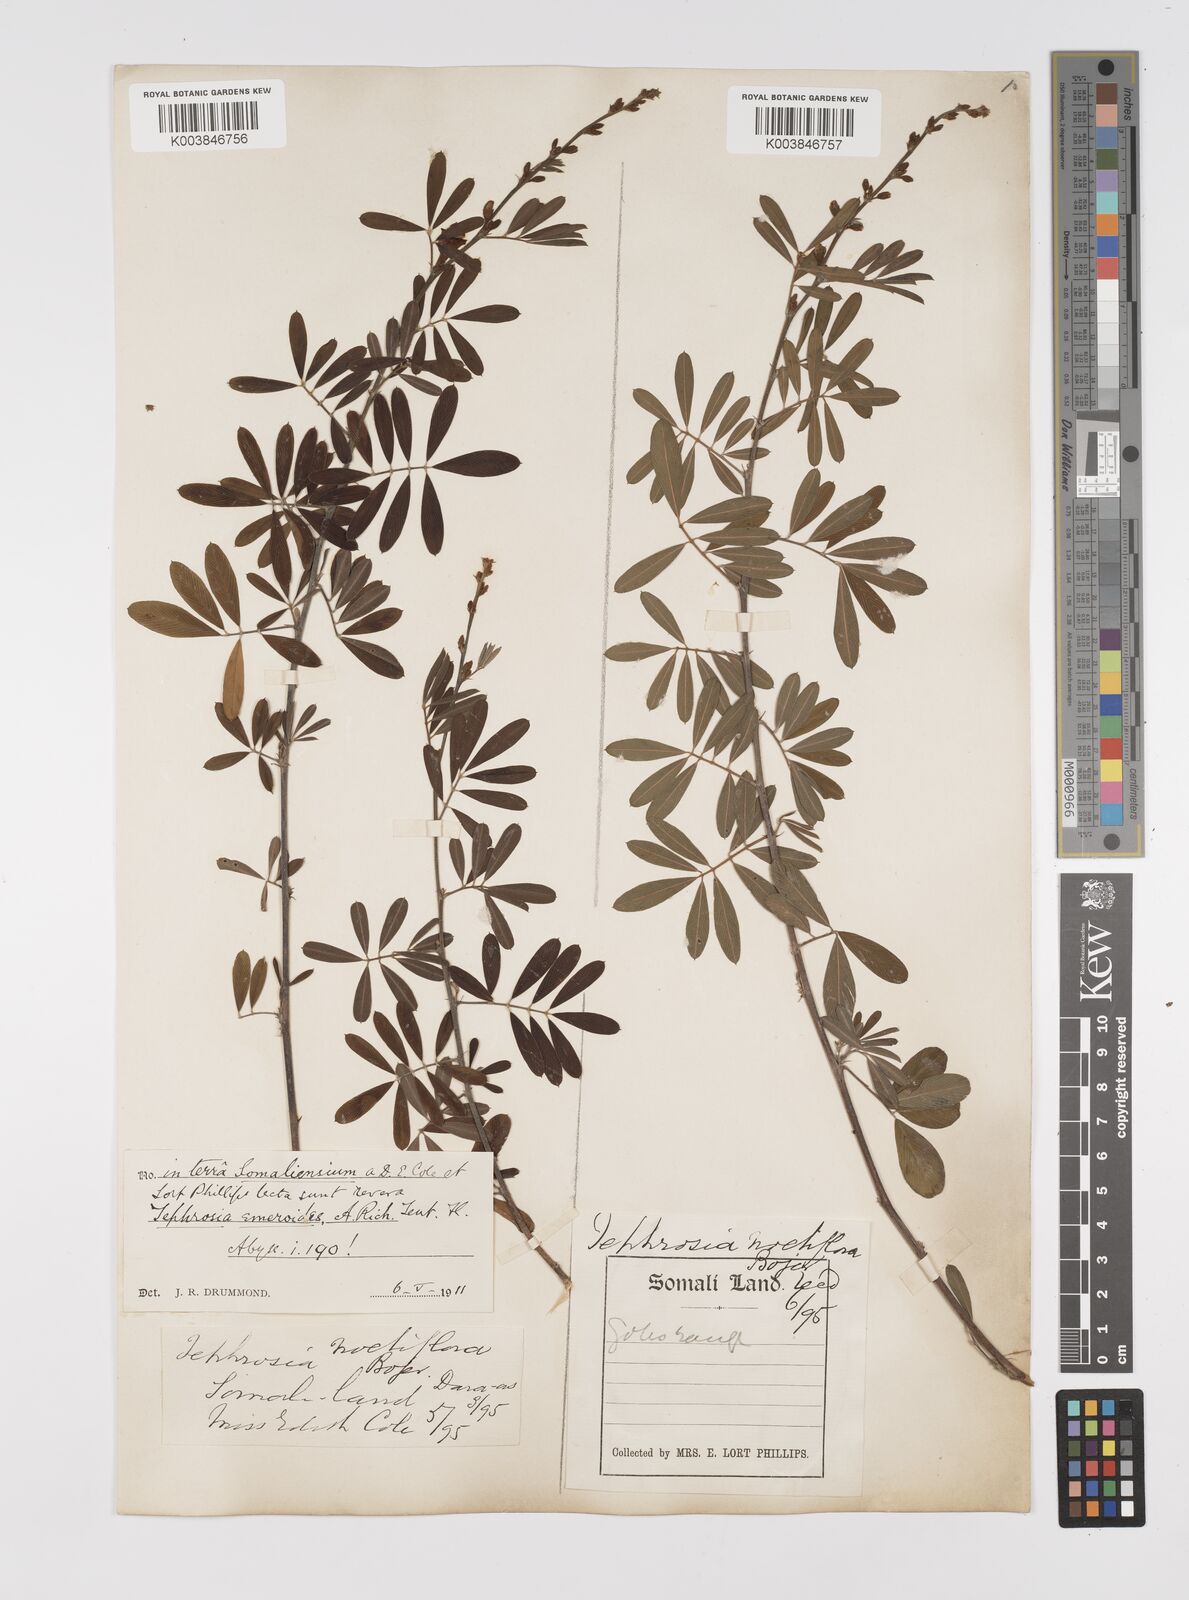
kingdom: Plantae
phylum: Tracheophyta
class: Magnoliopsida
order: Fabales
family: Fabaceae
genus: Tephrosia
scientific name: Tephrosia emeroides
